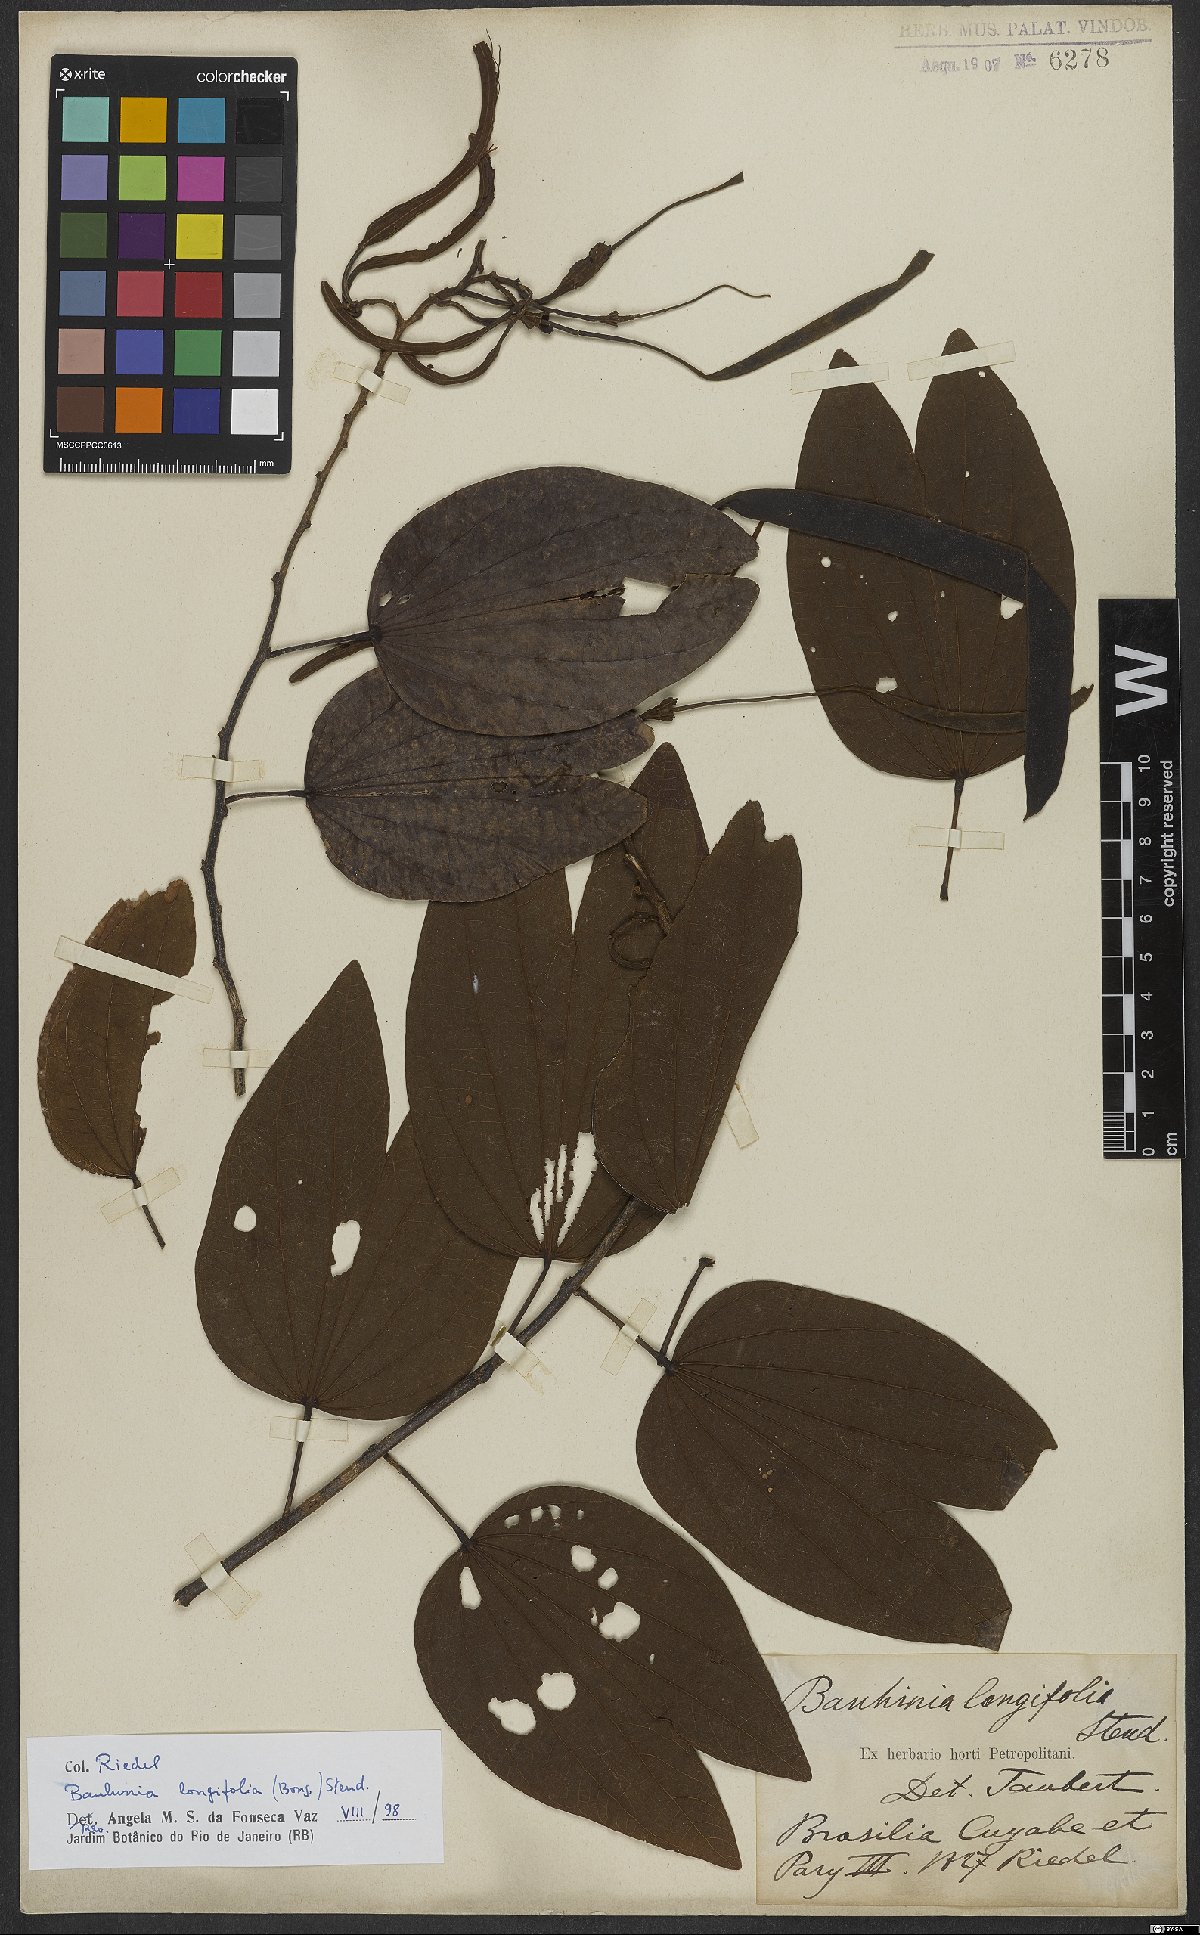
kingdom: Plantae
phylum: Tracheophyta
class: Magnoliopsida
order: Fabales
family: Fabaceae
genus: Bauhinia
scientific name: Bauhinia longifolia
